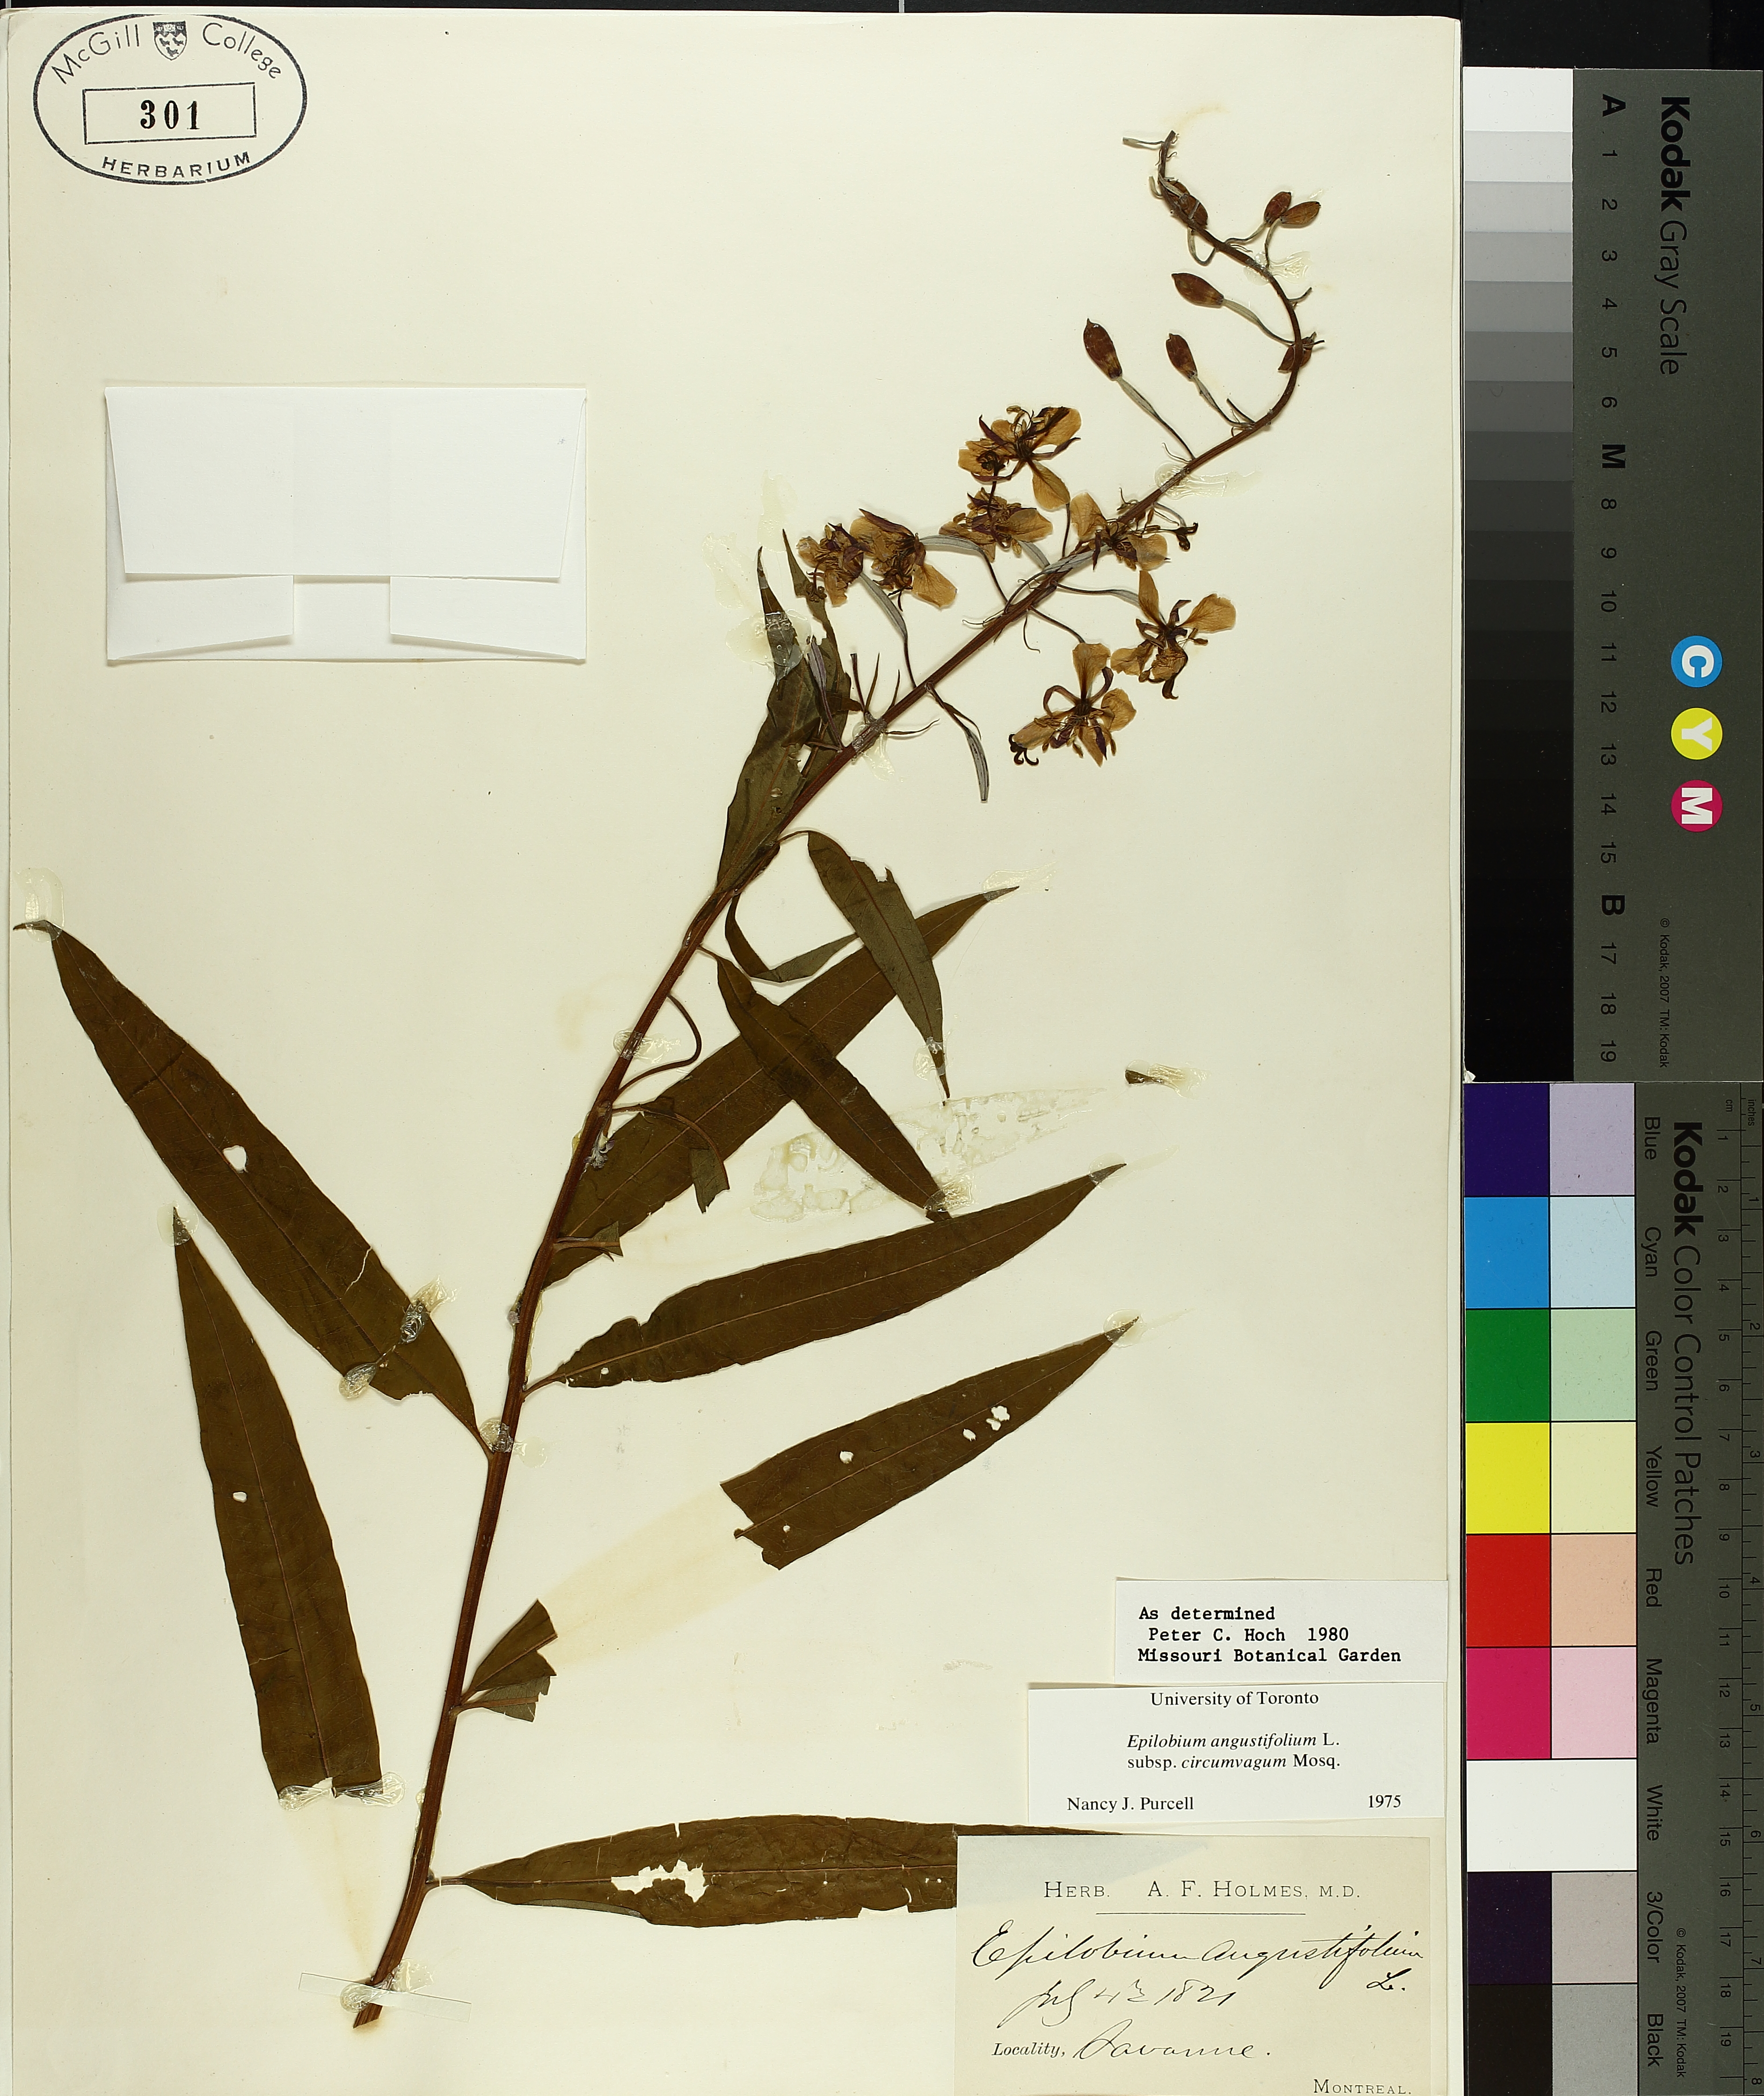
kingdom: Plantae
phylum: Tracheophyta
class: Magnoliopsida
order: Myrtales
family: Onagraceae
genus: Chamaenerion
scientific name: Chamaenerion angustifolium
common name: Fireweed
